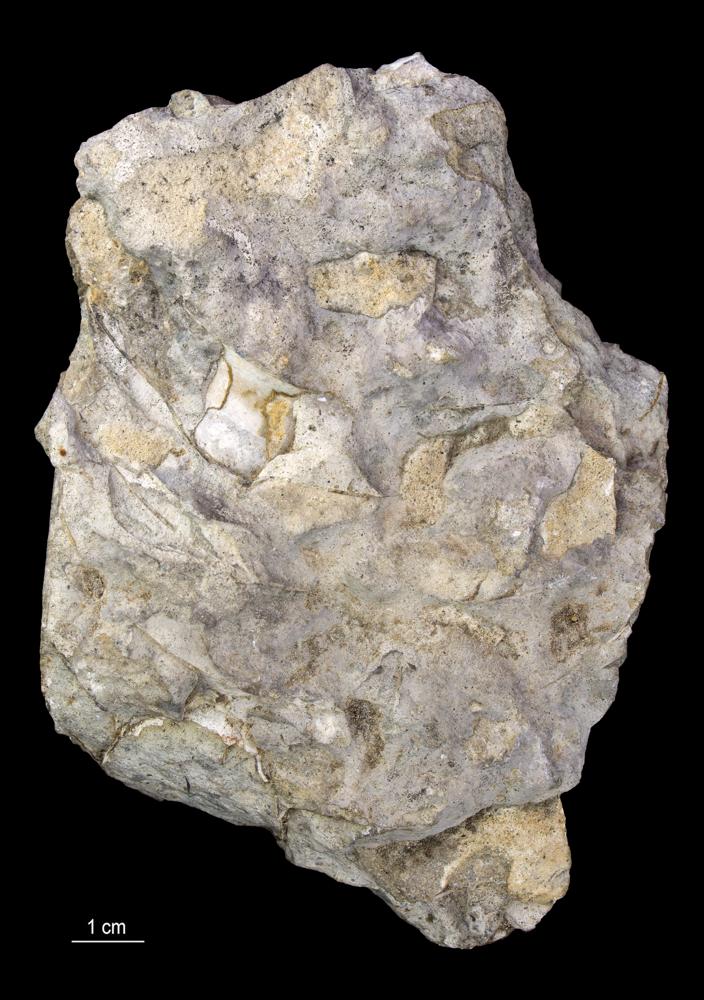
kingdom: Animalia
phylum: Mollusca
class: Cephalopoda
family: Endoceratidae
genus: Endoceras
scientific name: Endoceras
